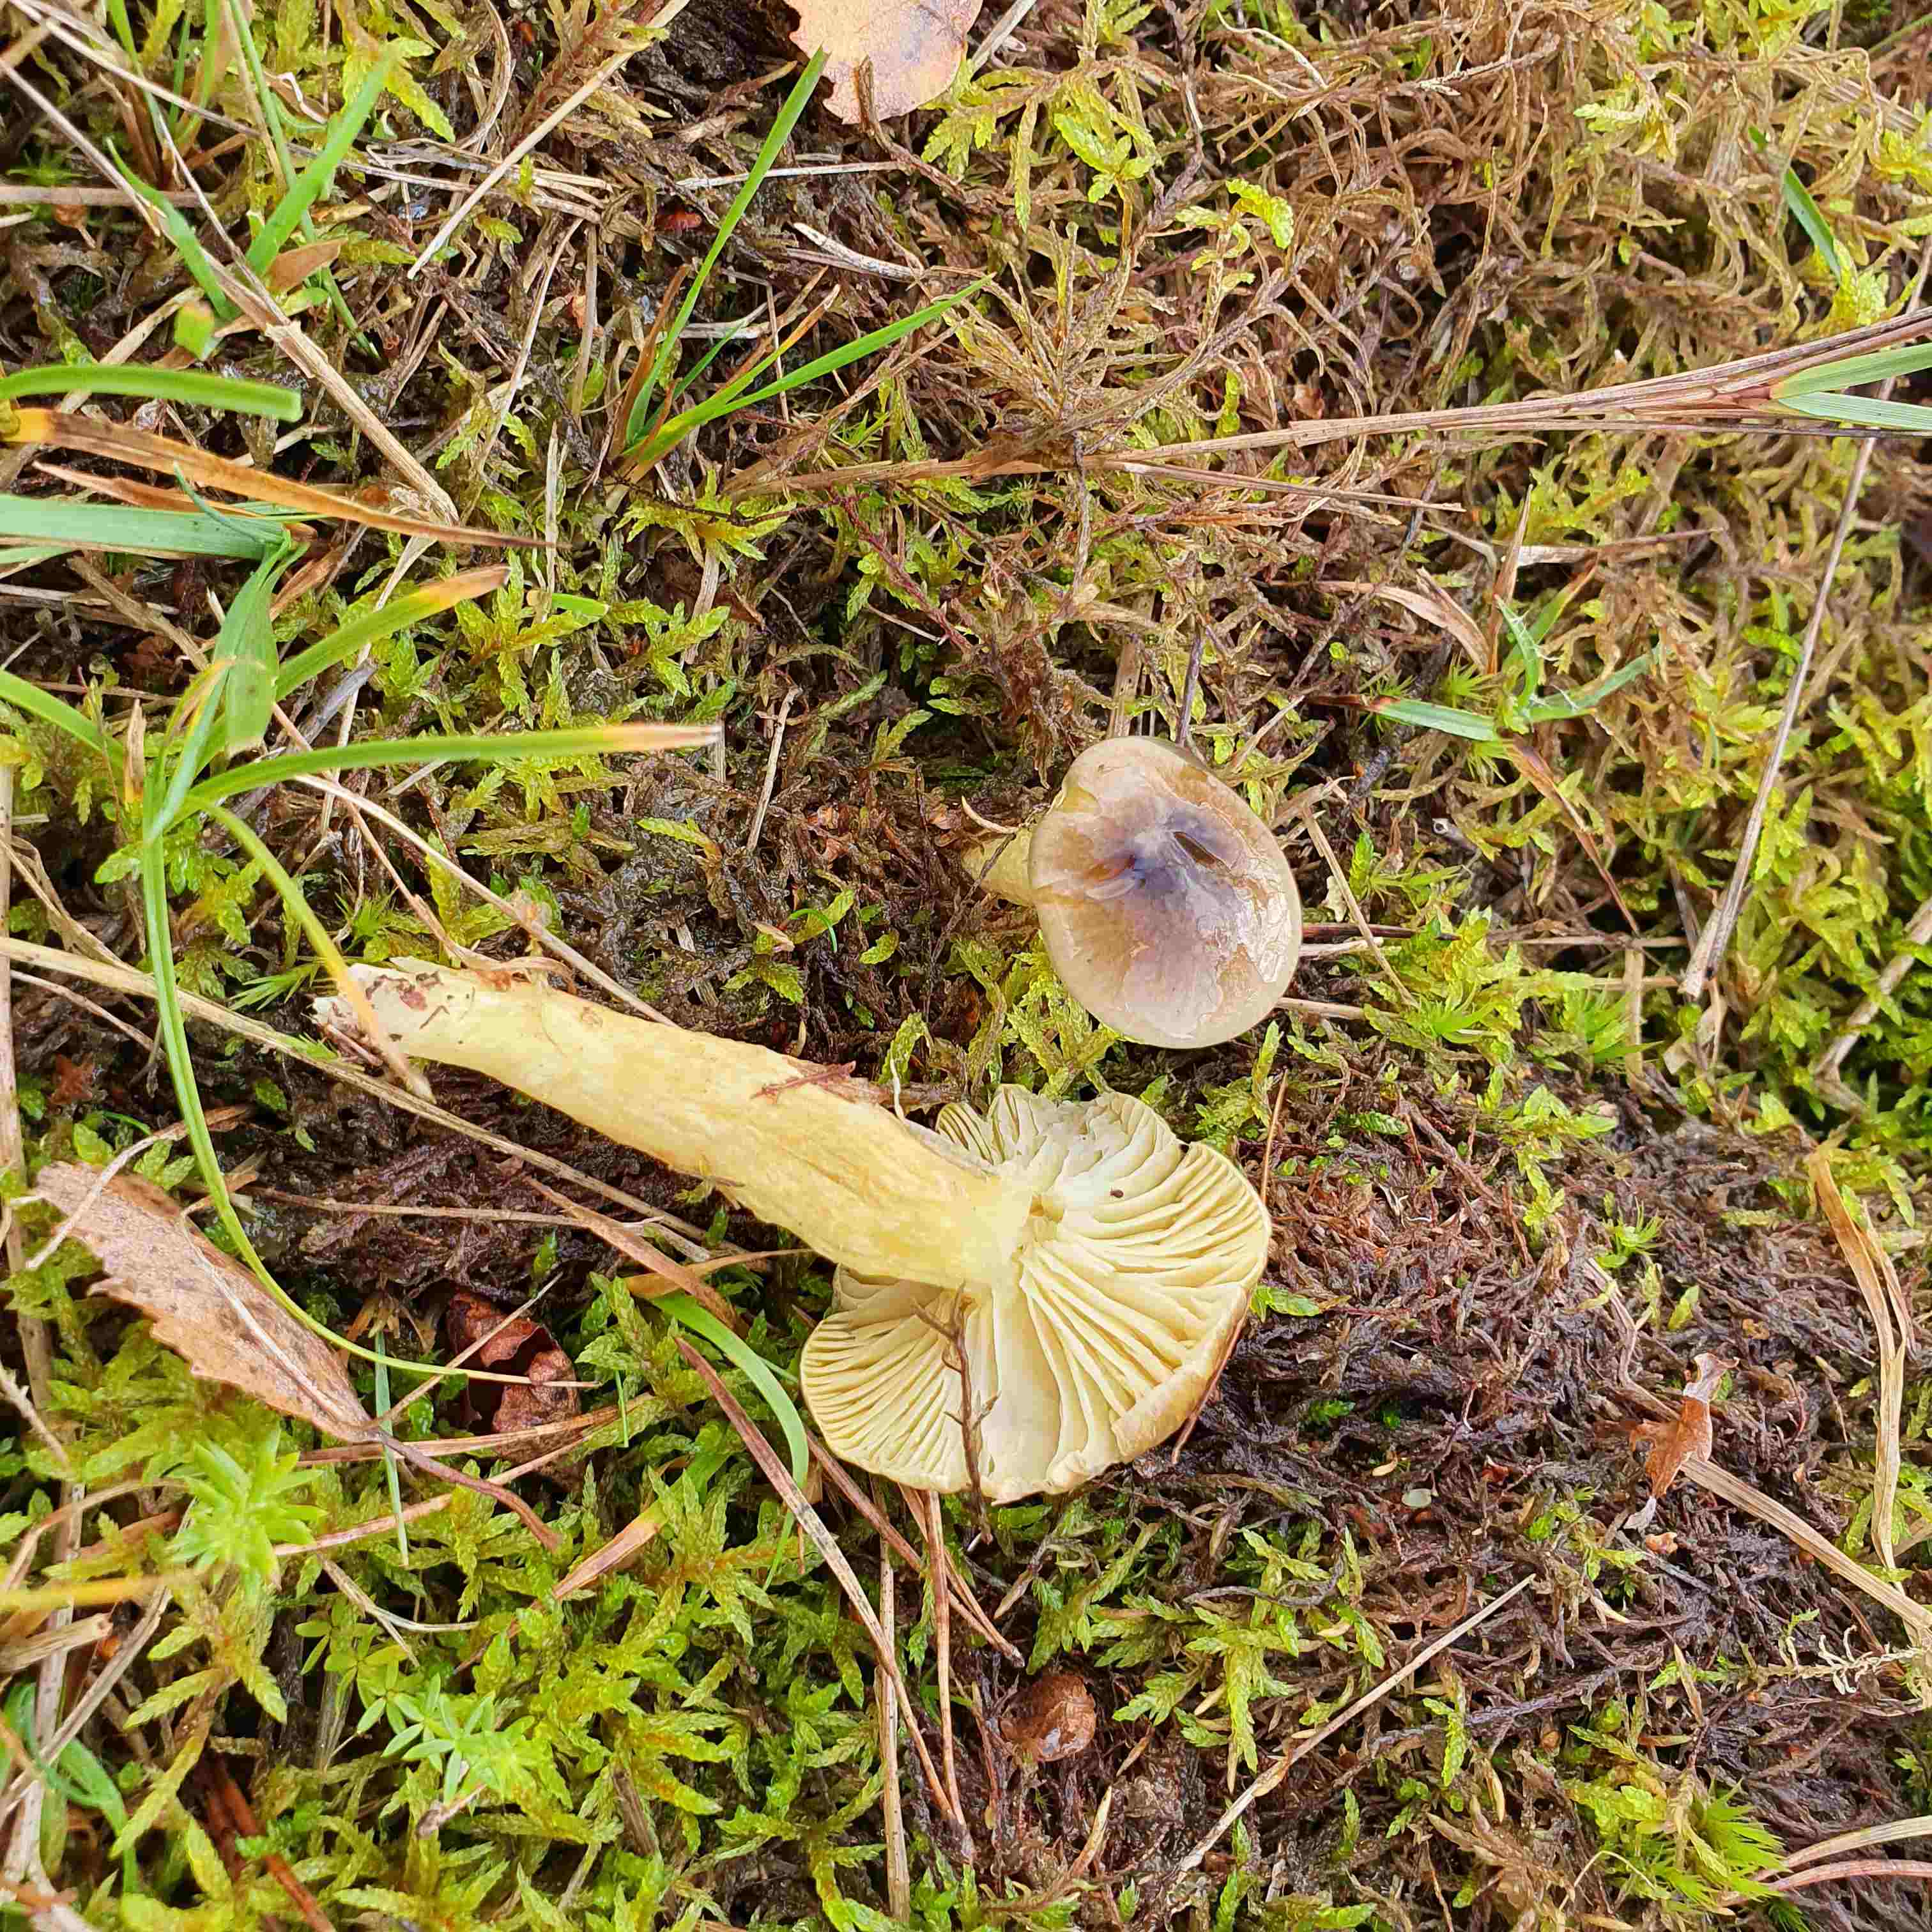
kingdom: Fungi
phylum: Basidiomycota
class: Agaricomycetes
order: Agaricales
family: Hygrophoraceae
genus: Hygrophorus
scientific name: Hygrophorus hypothejus
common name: frost-sneglehat
